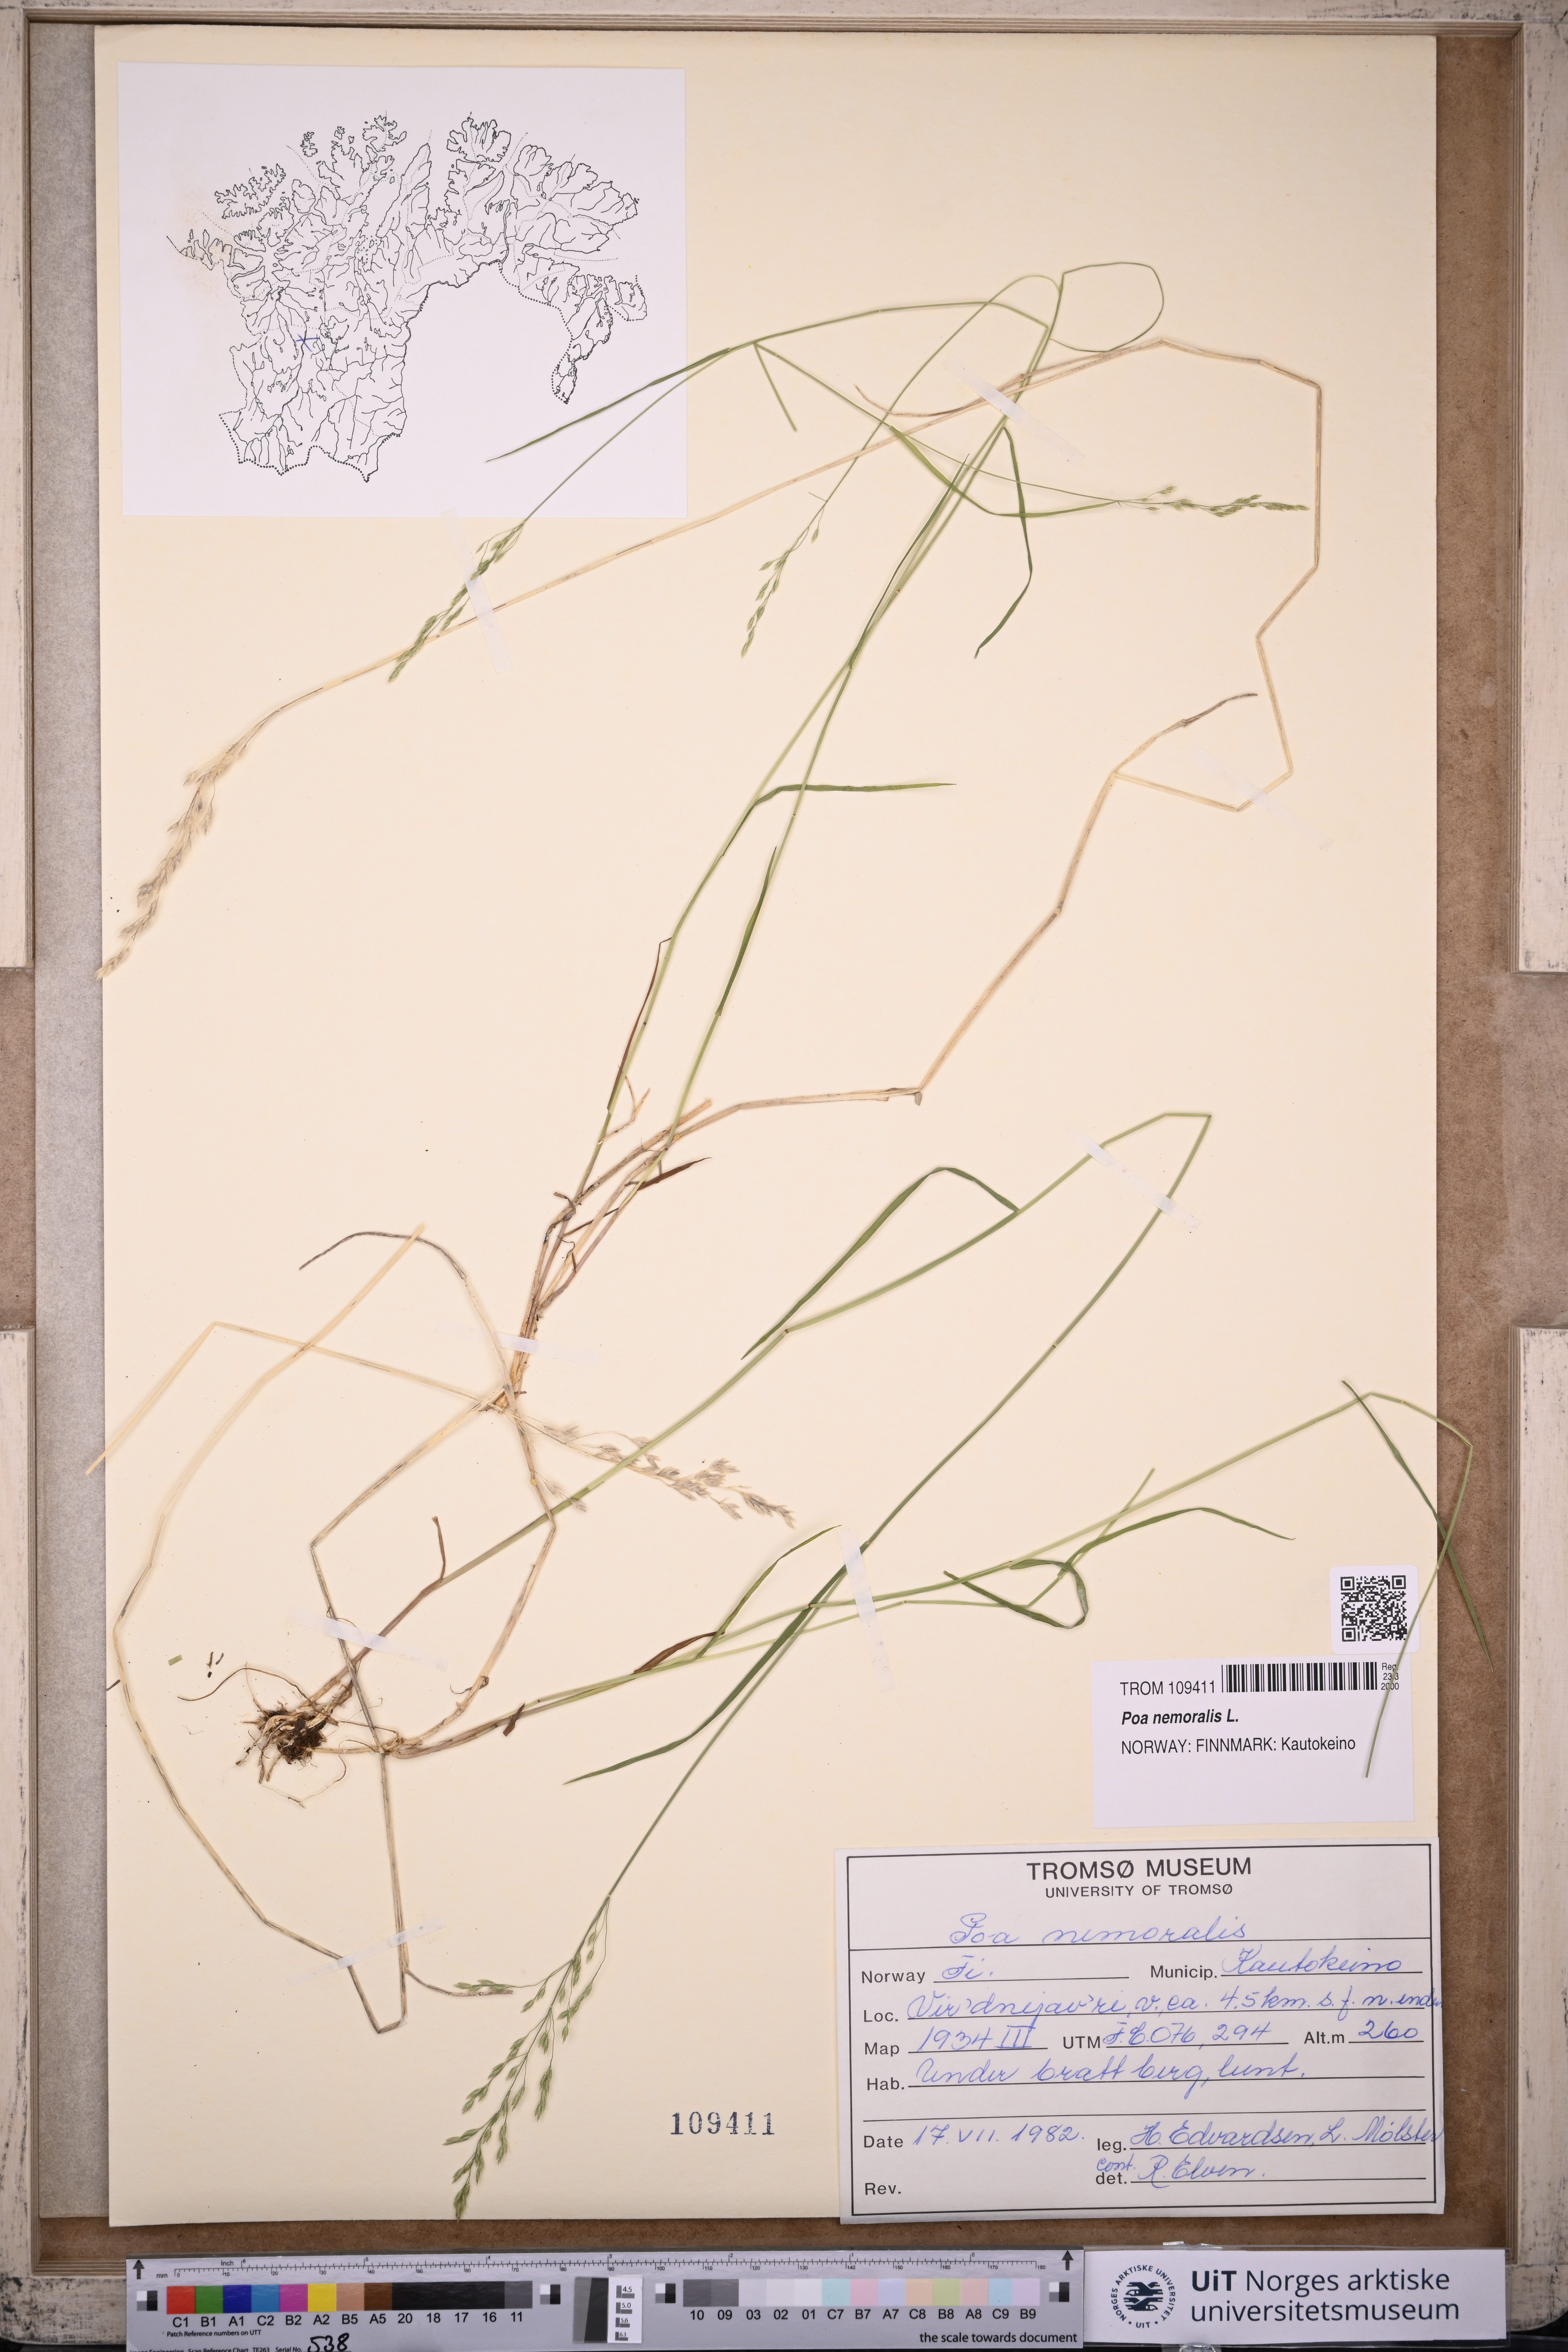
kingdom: Plantae
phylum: Tracheophyta
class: Liliopsida
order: Poales
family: Poaceae
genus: Poa
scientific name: Poa nemoralis
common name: Wood bluegrass
